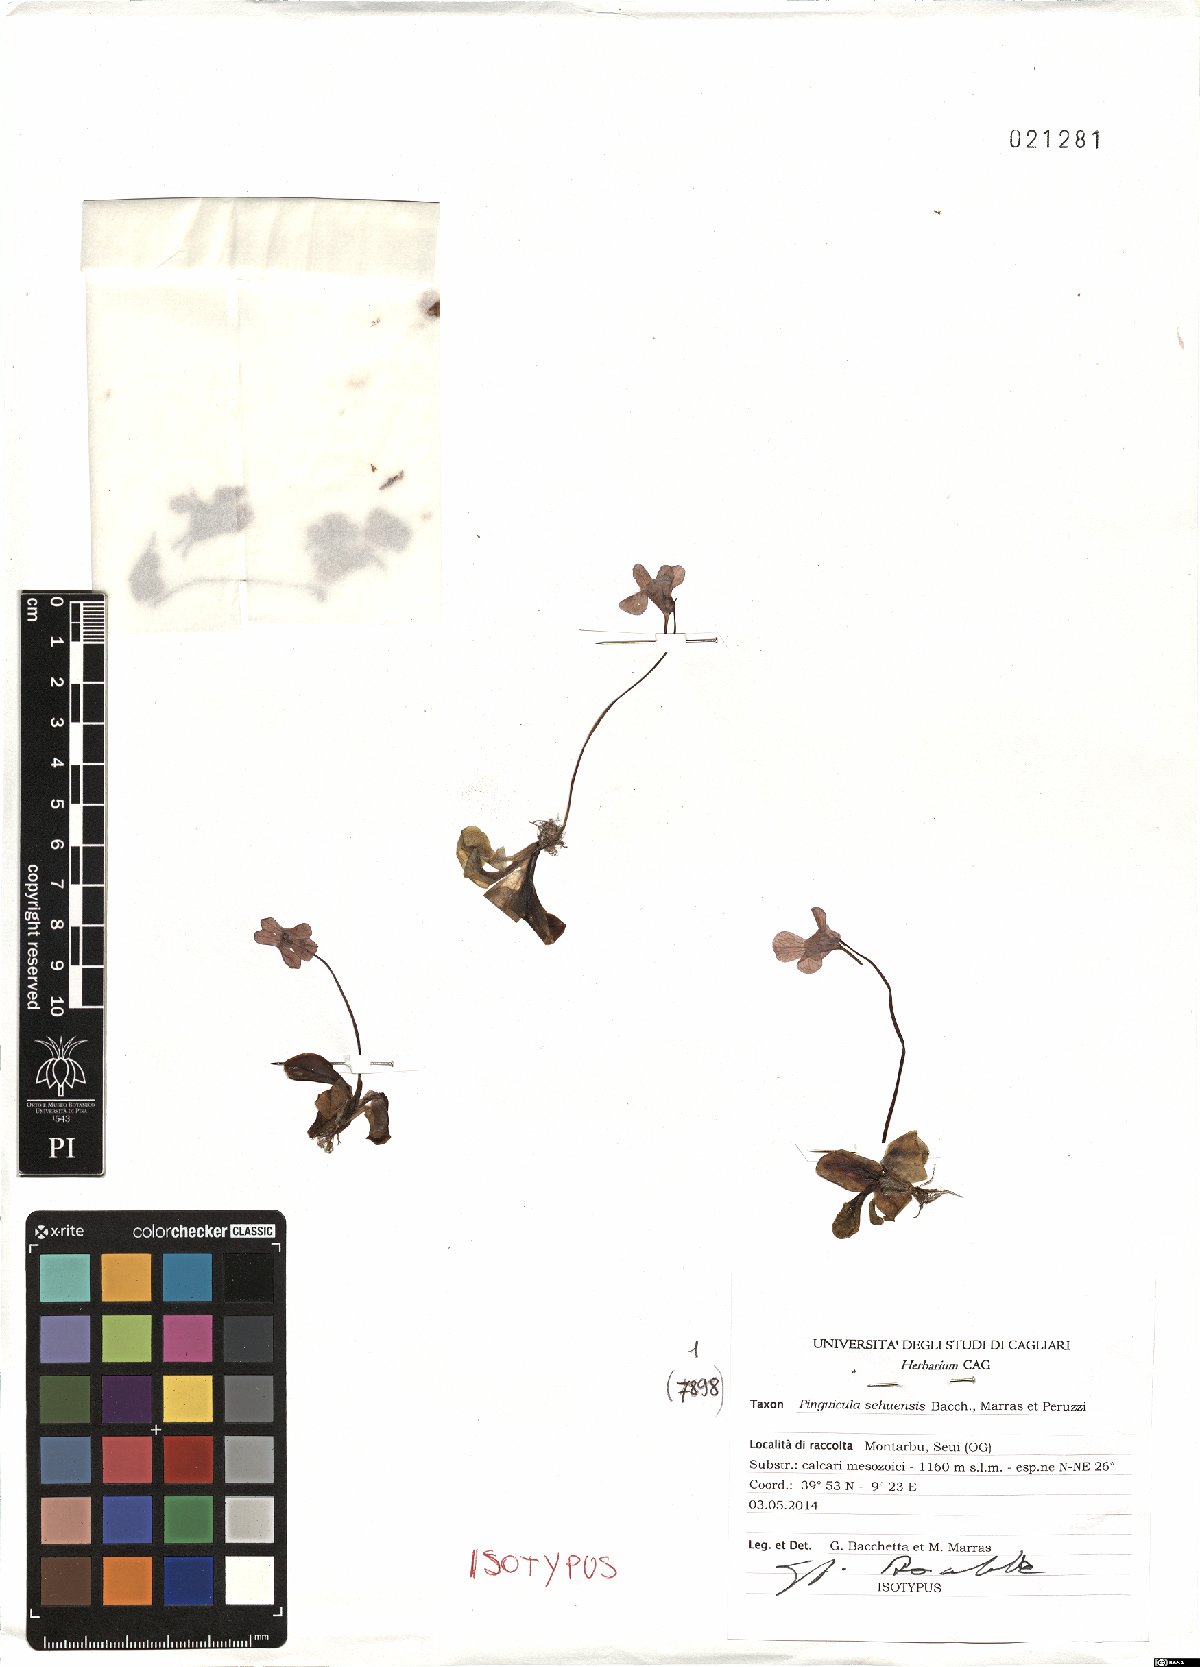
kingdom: Plantae
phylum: Tracheophyta
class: Magnoliopsida
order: Lamiales
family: Lentibulariaceae
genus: Pinguicula
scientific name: Pinguicula sehuensis
